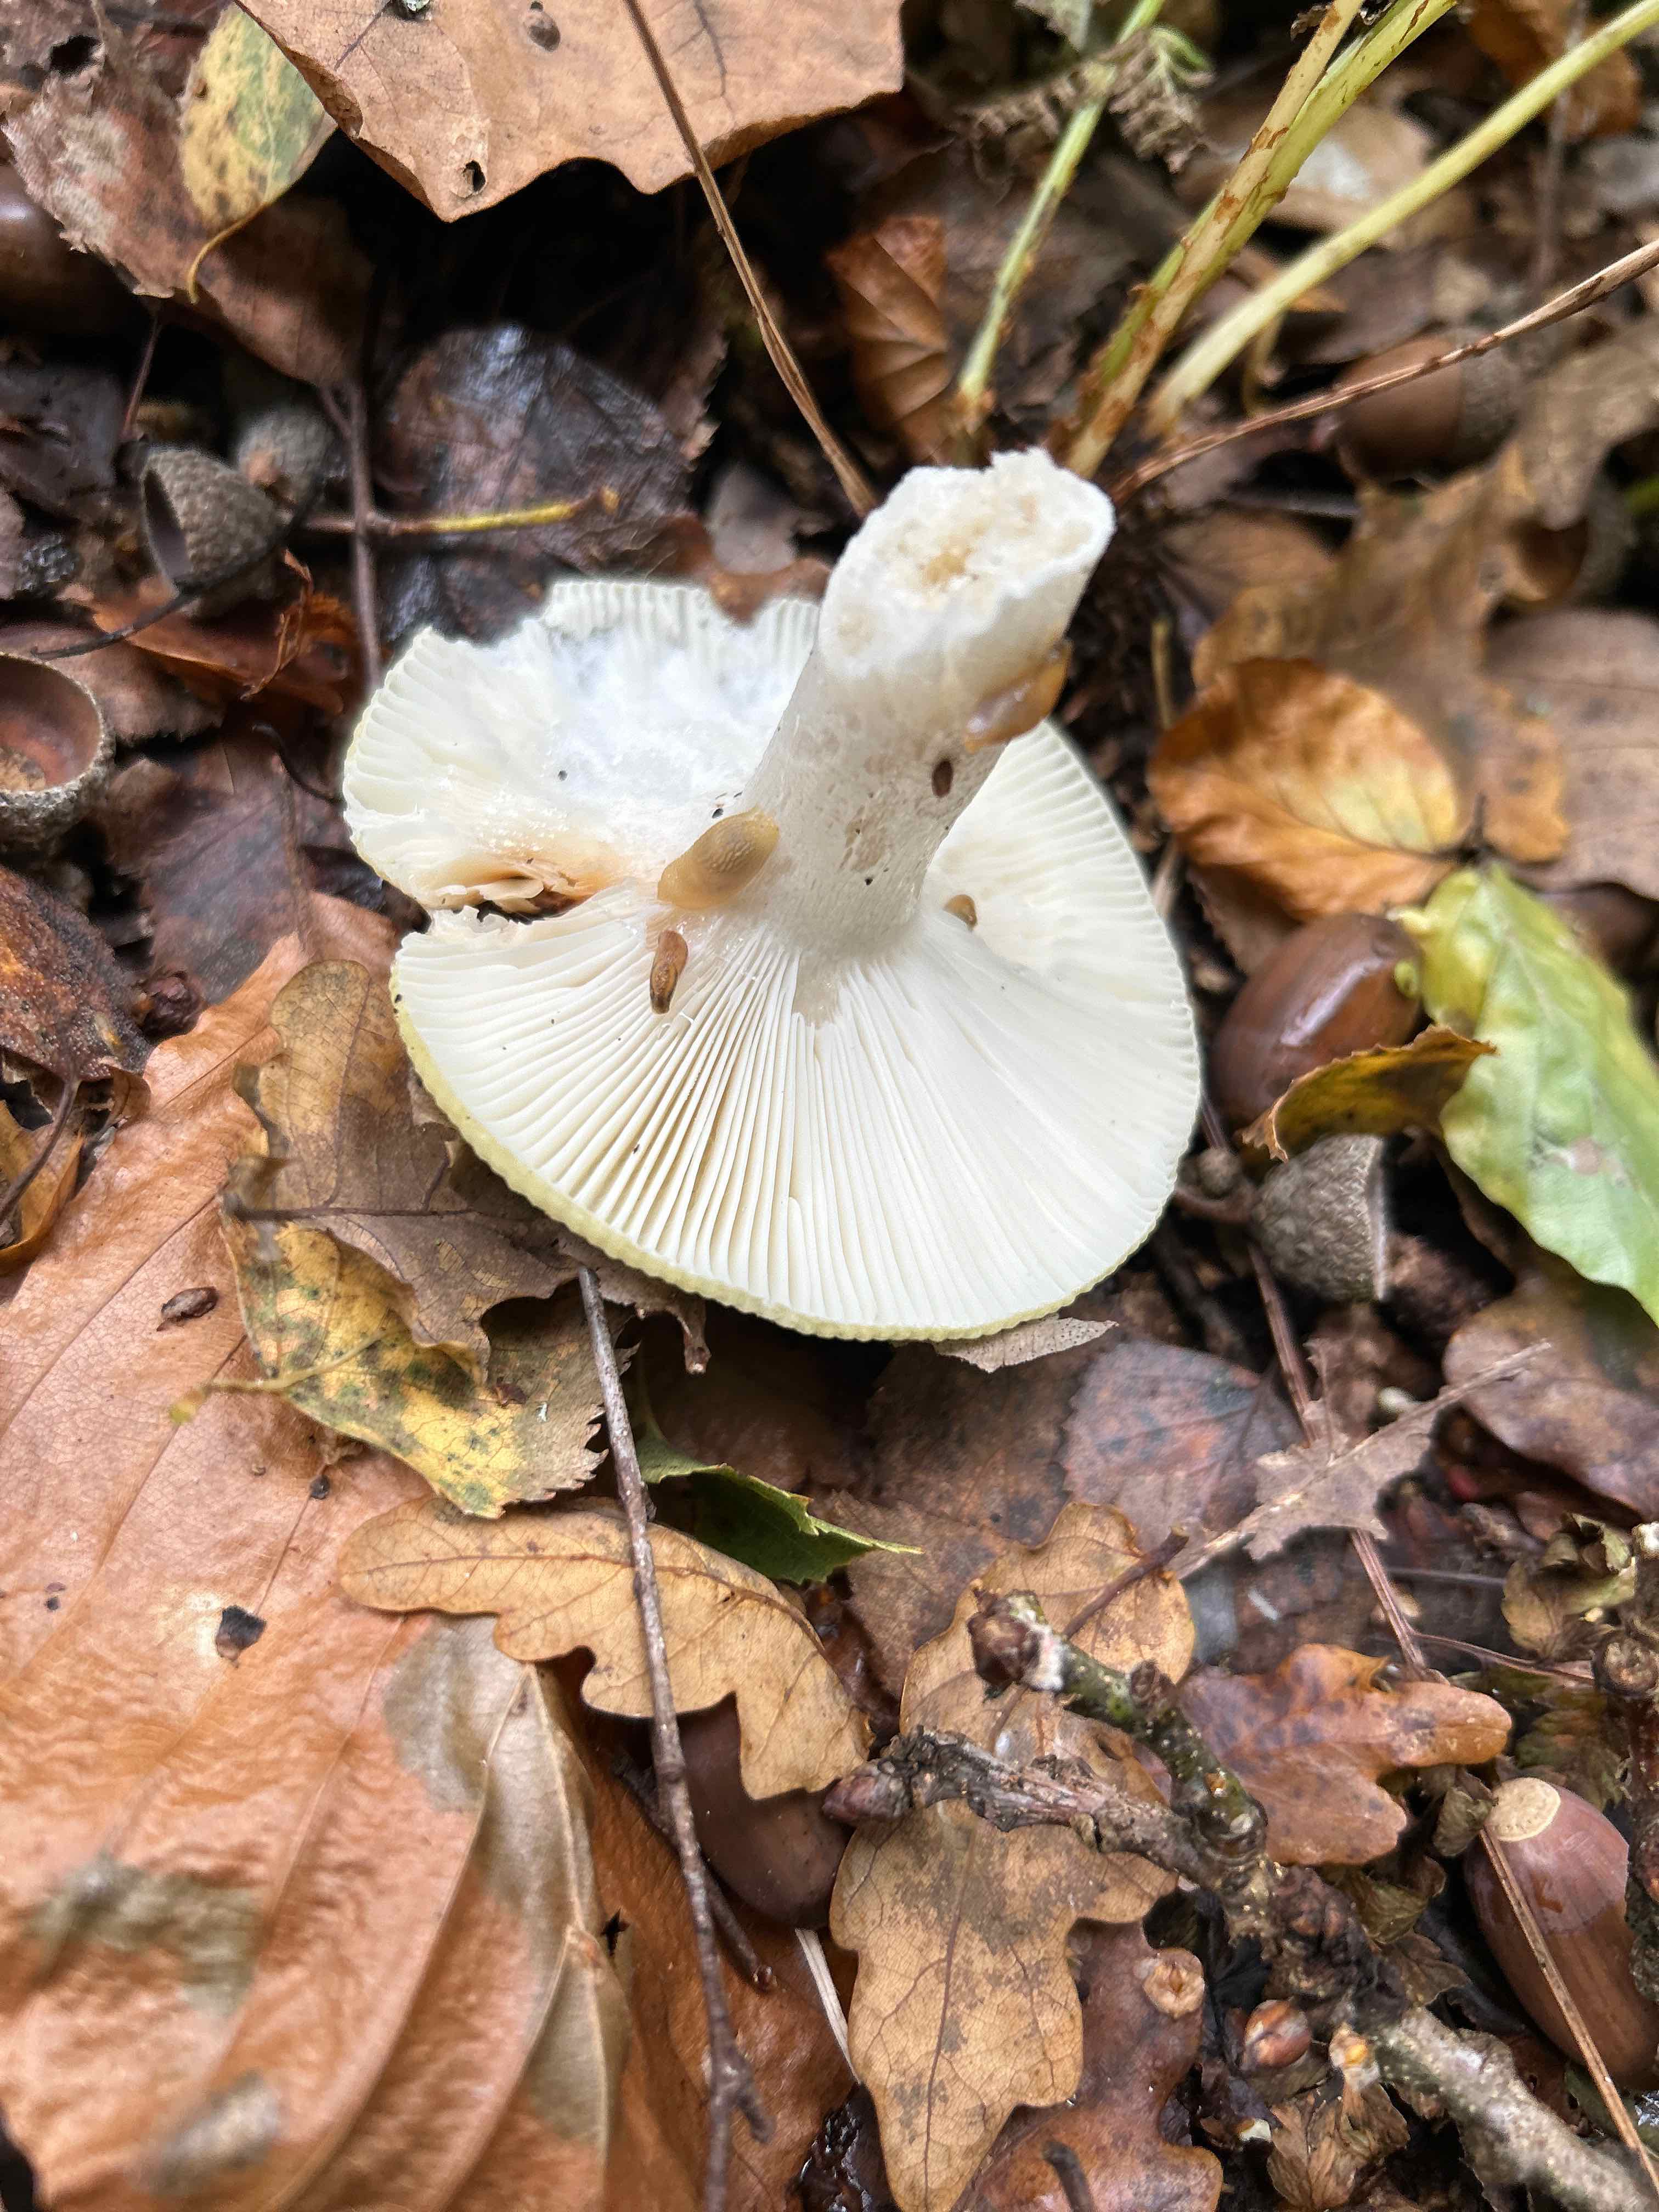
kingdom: Fungi
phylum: Basidiomycota
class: Agaricomycetes
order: Russulales
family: Russulaceae
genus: Russula
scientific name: Russula
